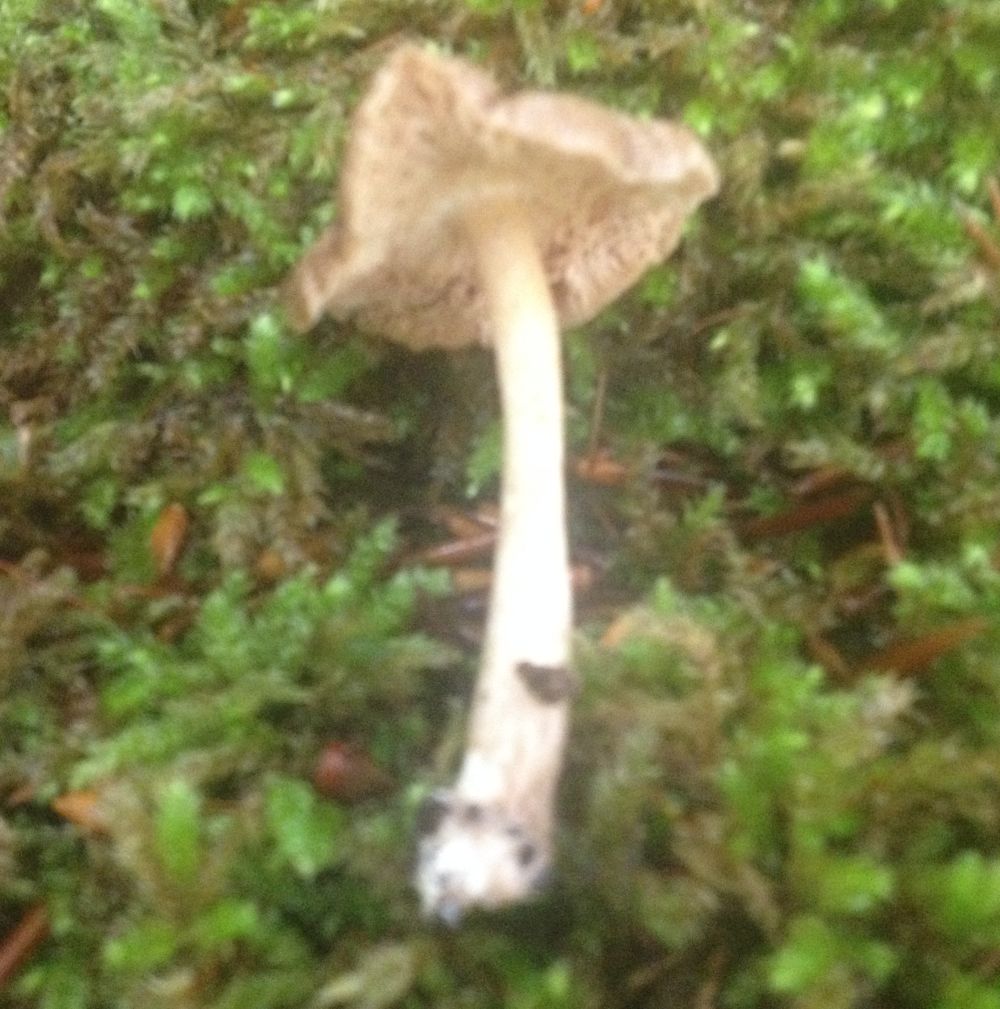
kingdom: Fungi
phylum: Basidiomycota
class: Agaricomycetes
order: Agaricales
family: Pluteaceae
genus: Pluteus
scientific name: Pluteus salicinus
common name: stiv skærmhat
